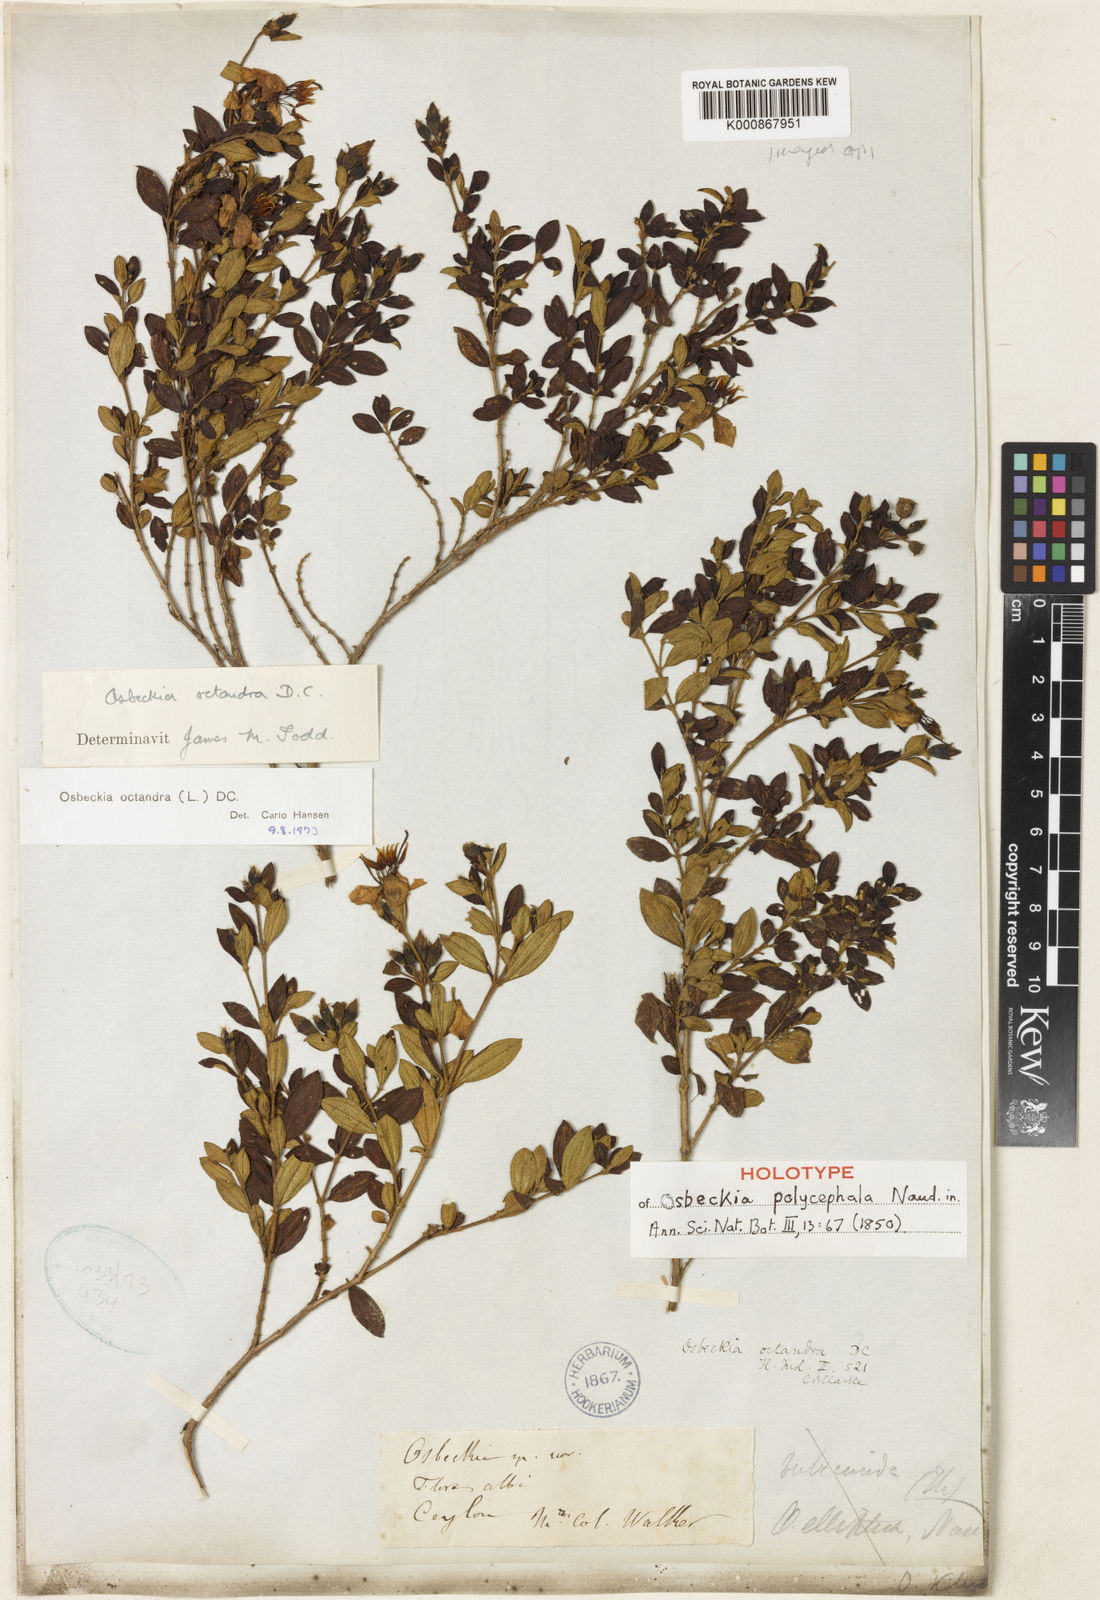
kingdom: Plantae
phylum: Tracheophyta
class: Magnoliopsida
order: Myrtales
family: Melastomataceae
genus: Osbeckia
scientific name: Osbeckia octandra
